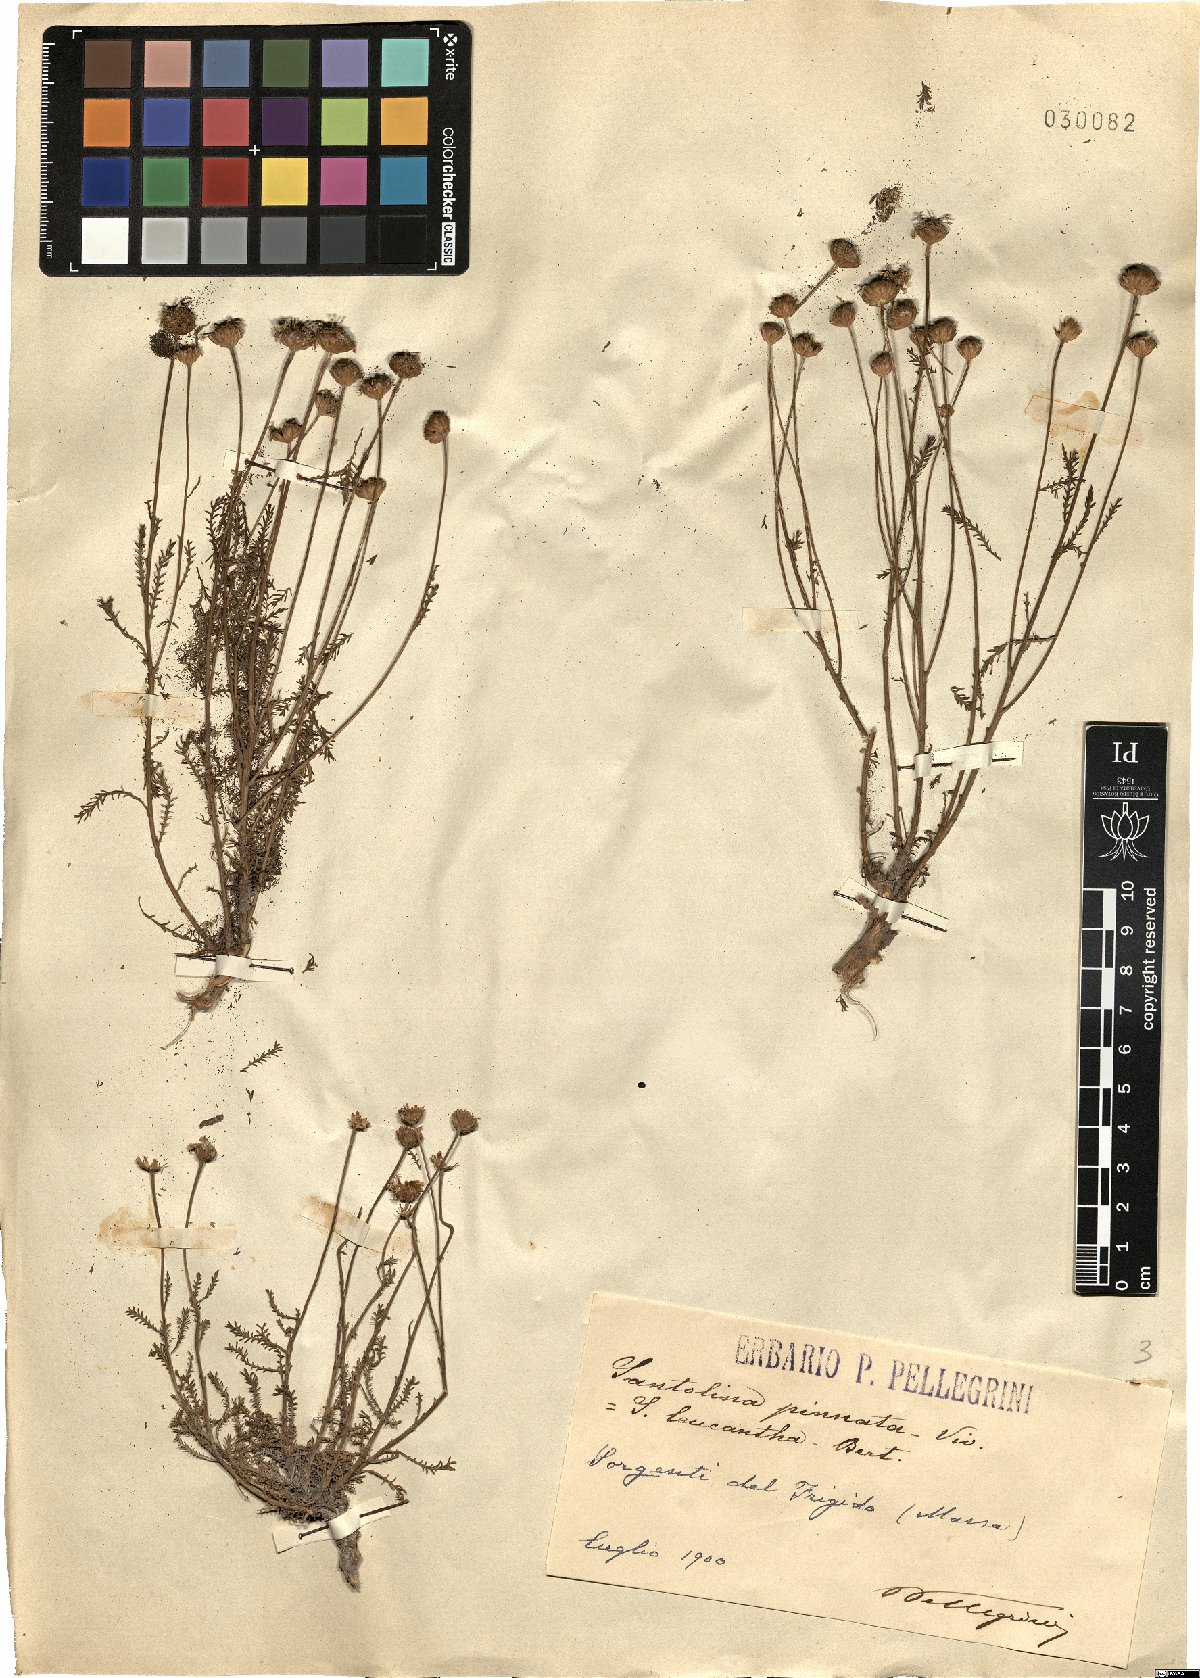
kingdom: Plantae
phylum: Tracheophyta
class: Magnoliopsida
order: Asterales
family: Asteraceae
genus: Santolina
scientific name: Santolina pinnata
